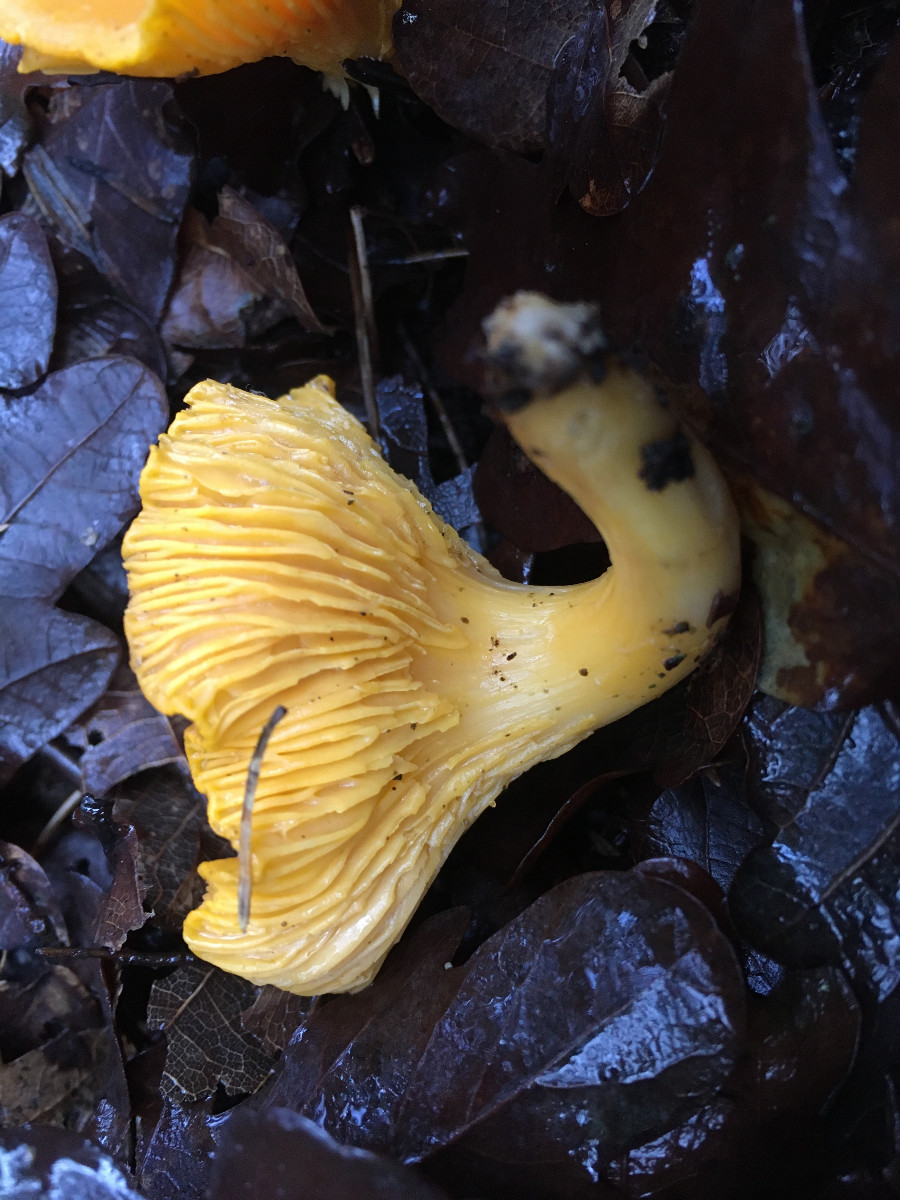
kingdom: Fungi
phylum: Basidiomycota
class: Agaricomycetes
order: Cantharellales
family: Hydnaceae
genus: Cantharellus
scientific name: Cantharellus cibarius
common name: almindelig kantarel
